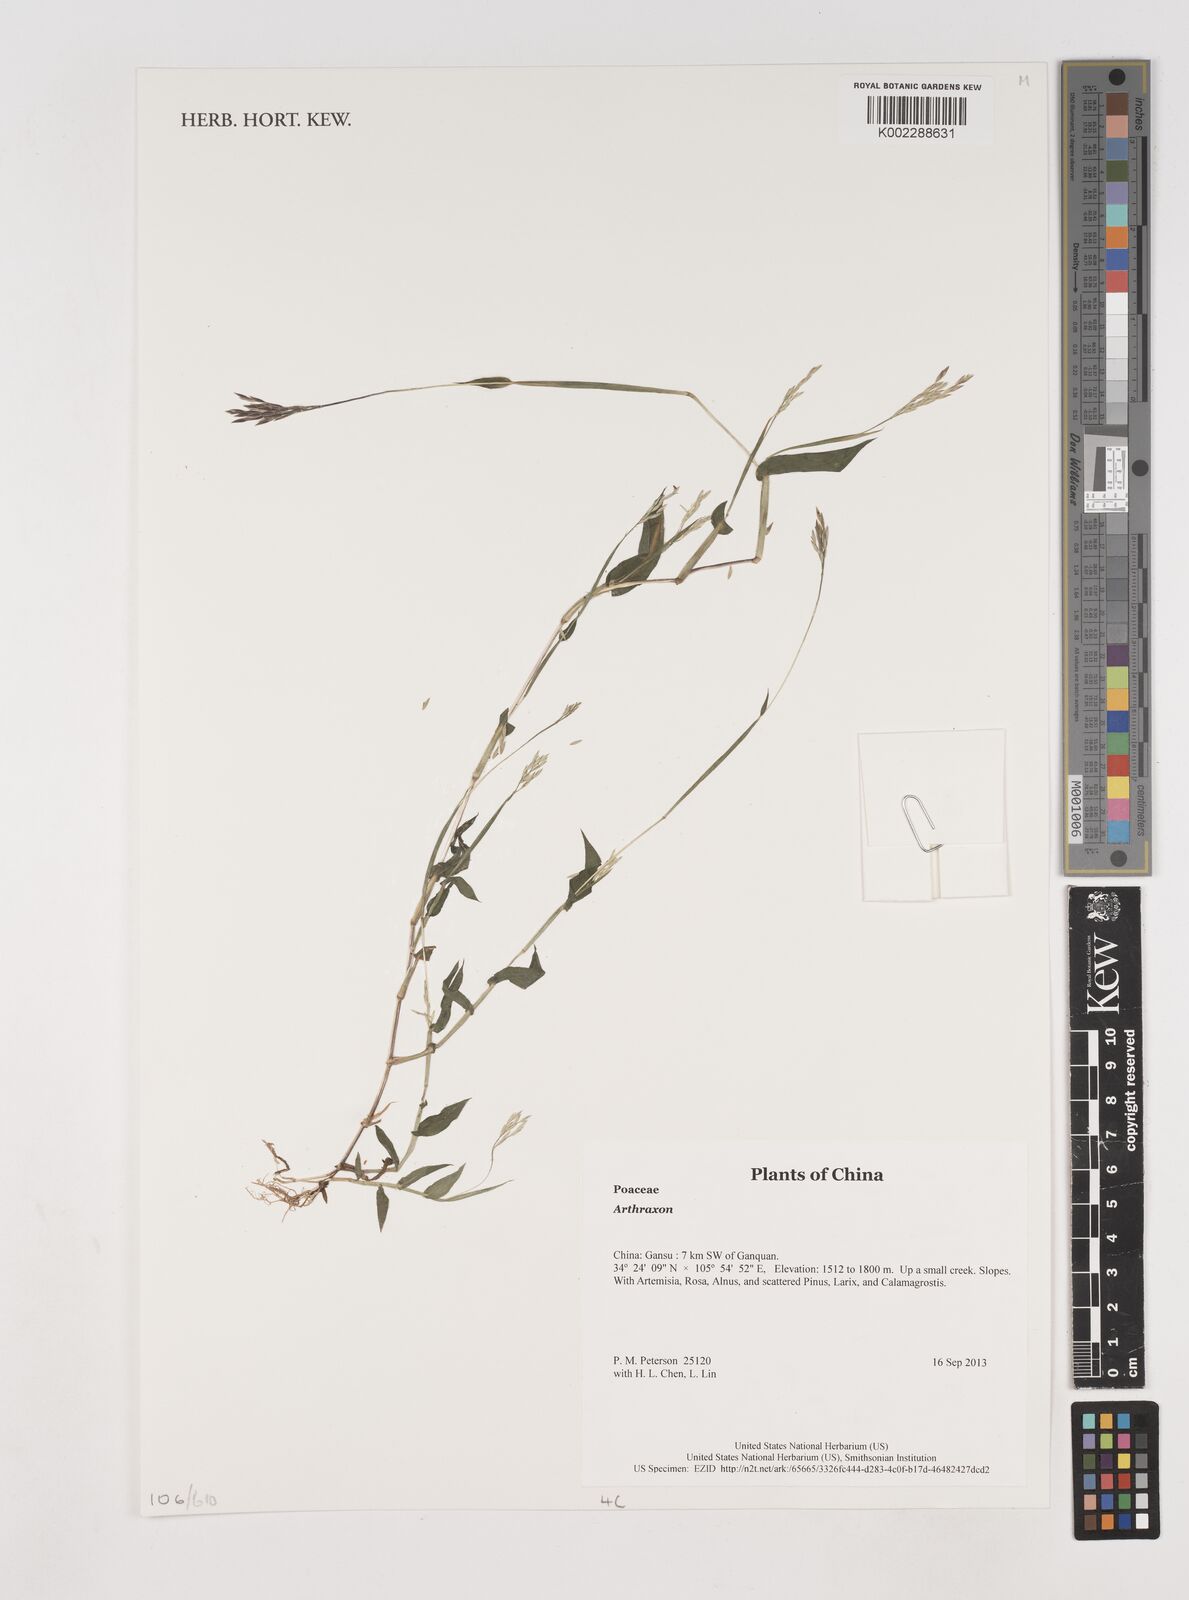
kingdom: Plantae
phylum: Tracheophyta
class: Liliopsida
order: Poales
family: Poaceae
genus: Arthraxon
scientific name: Arthraxon
